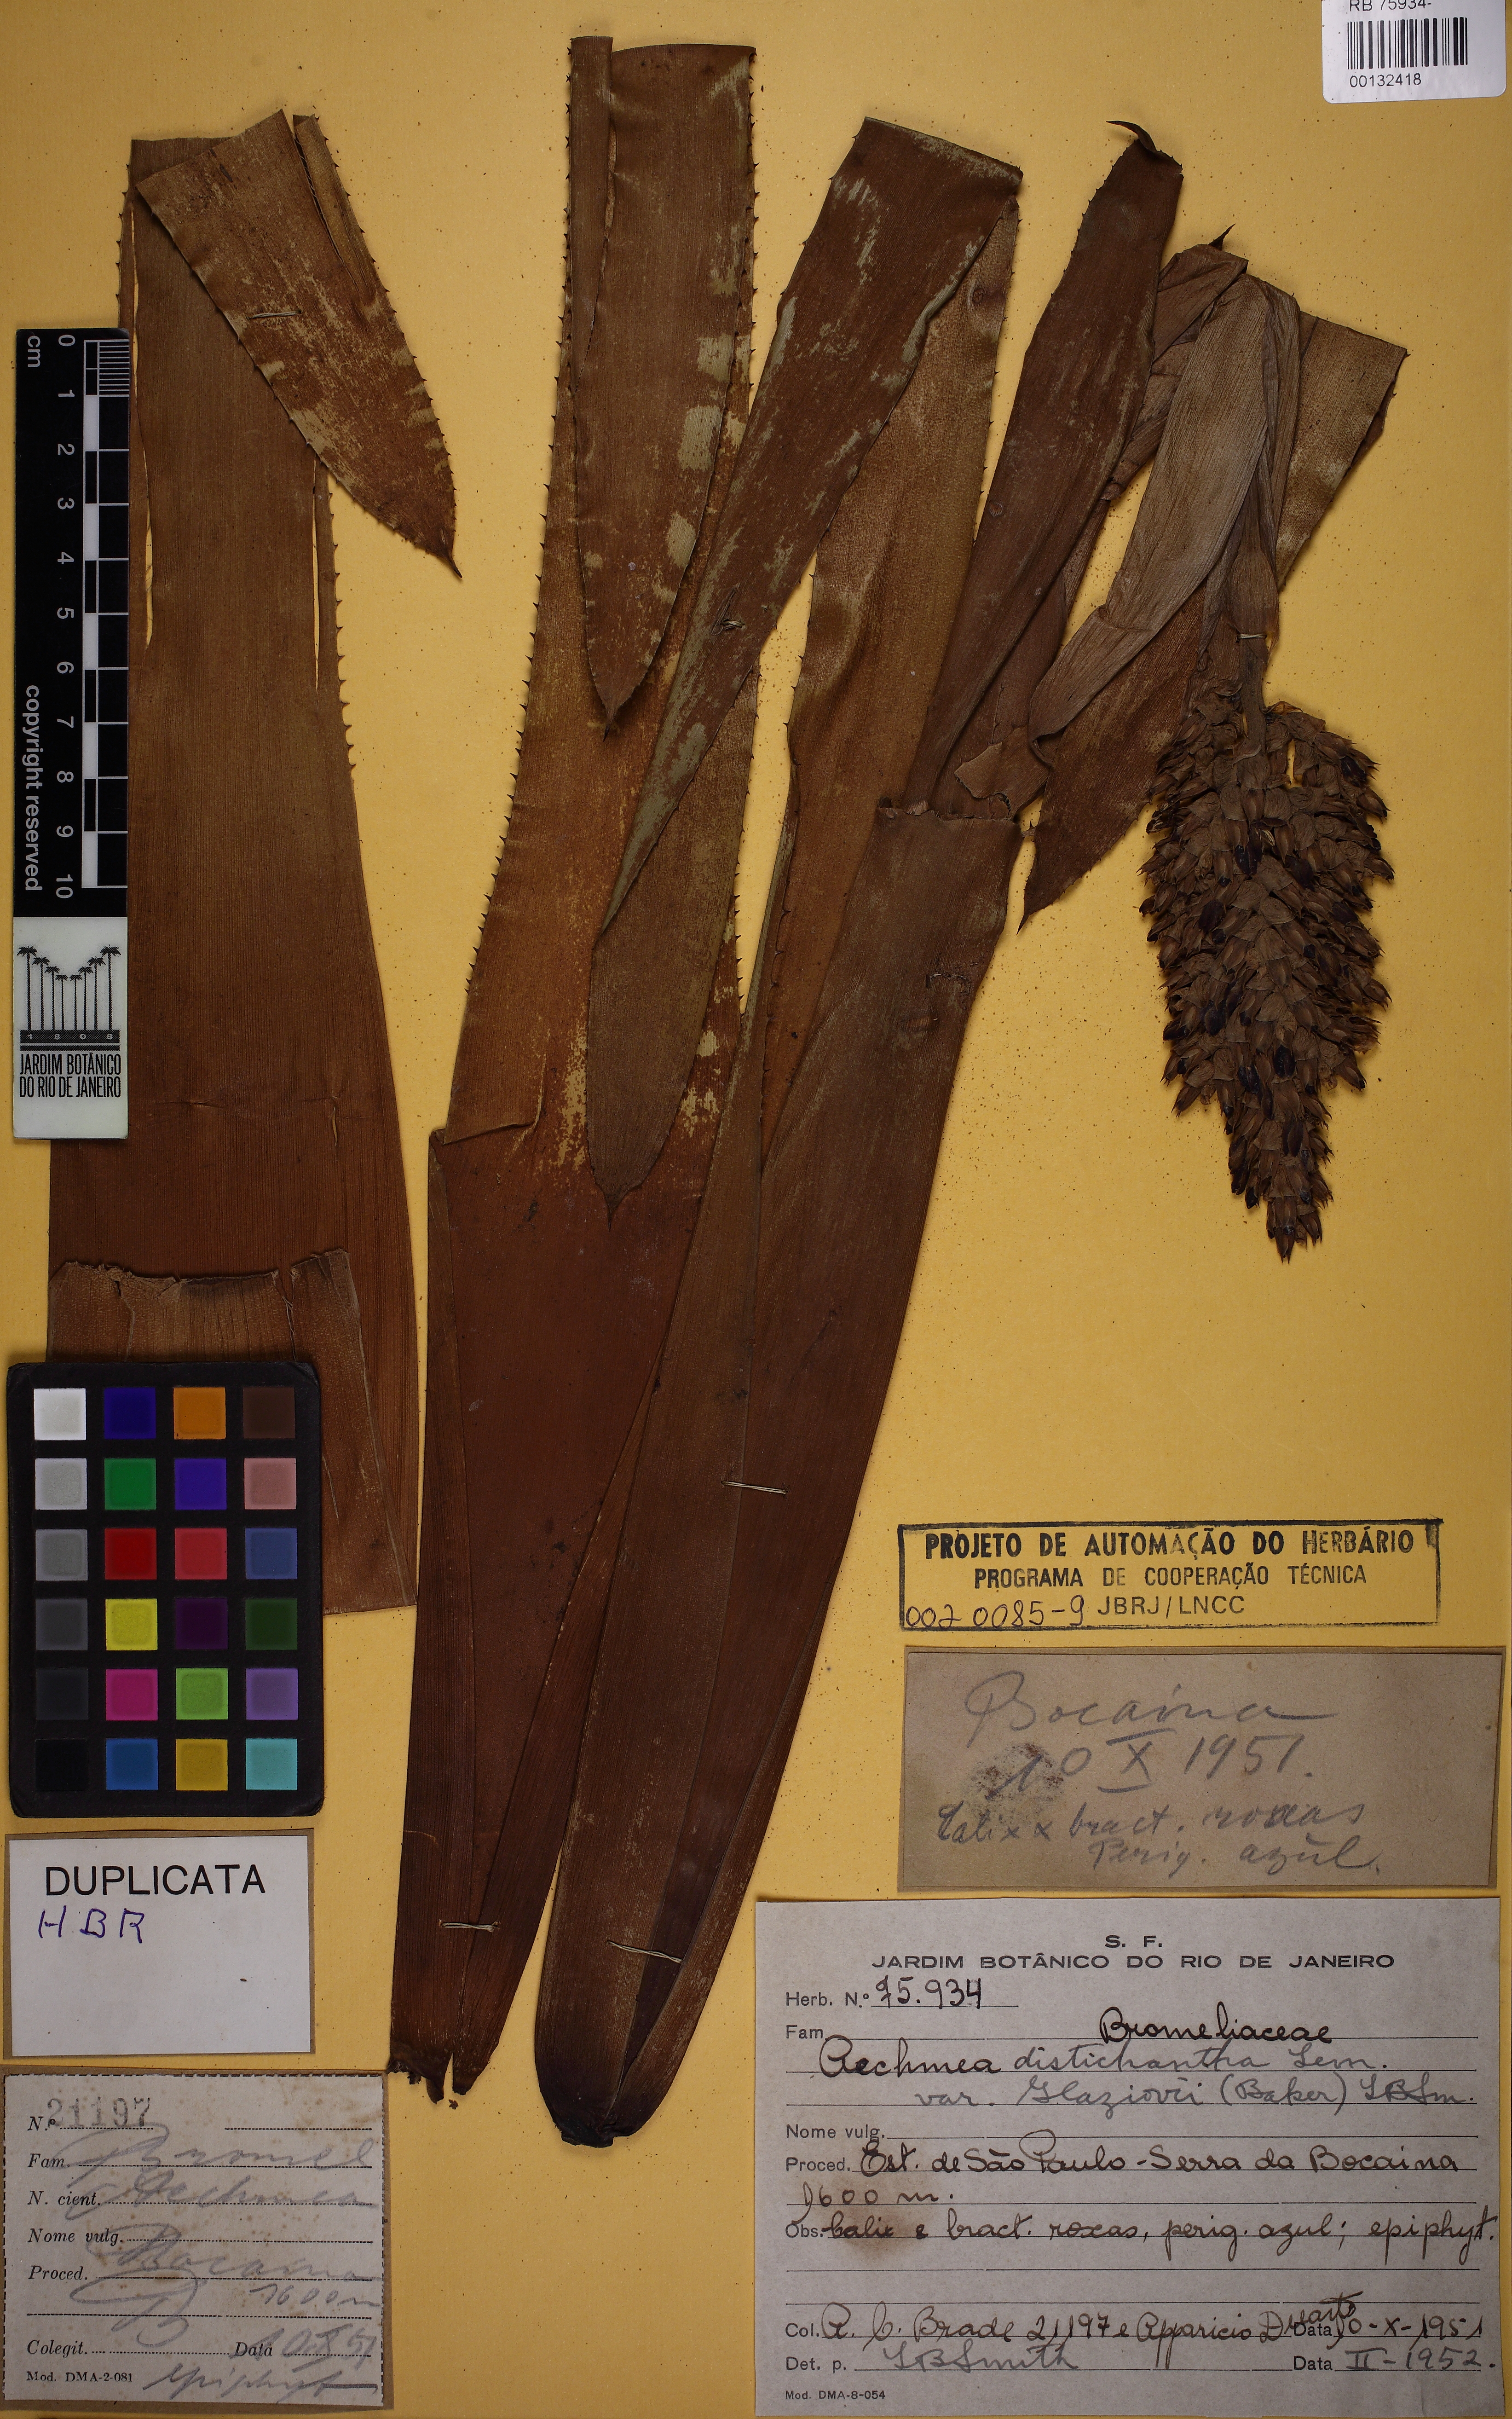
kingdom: Plantae
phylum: Tracheophyta
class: Liliopsida
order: Poales
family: Bromeliaceae
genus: Aechmea
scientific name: Aechmea distichantha
